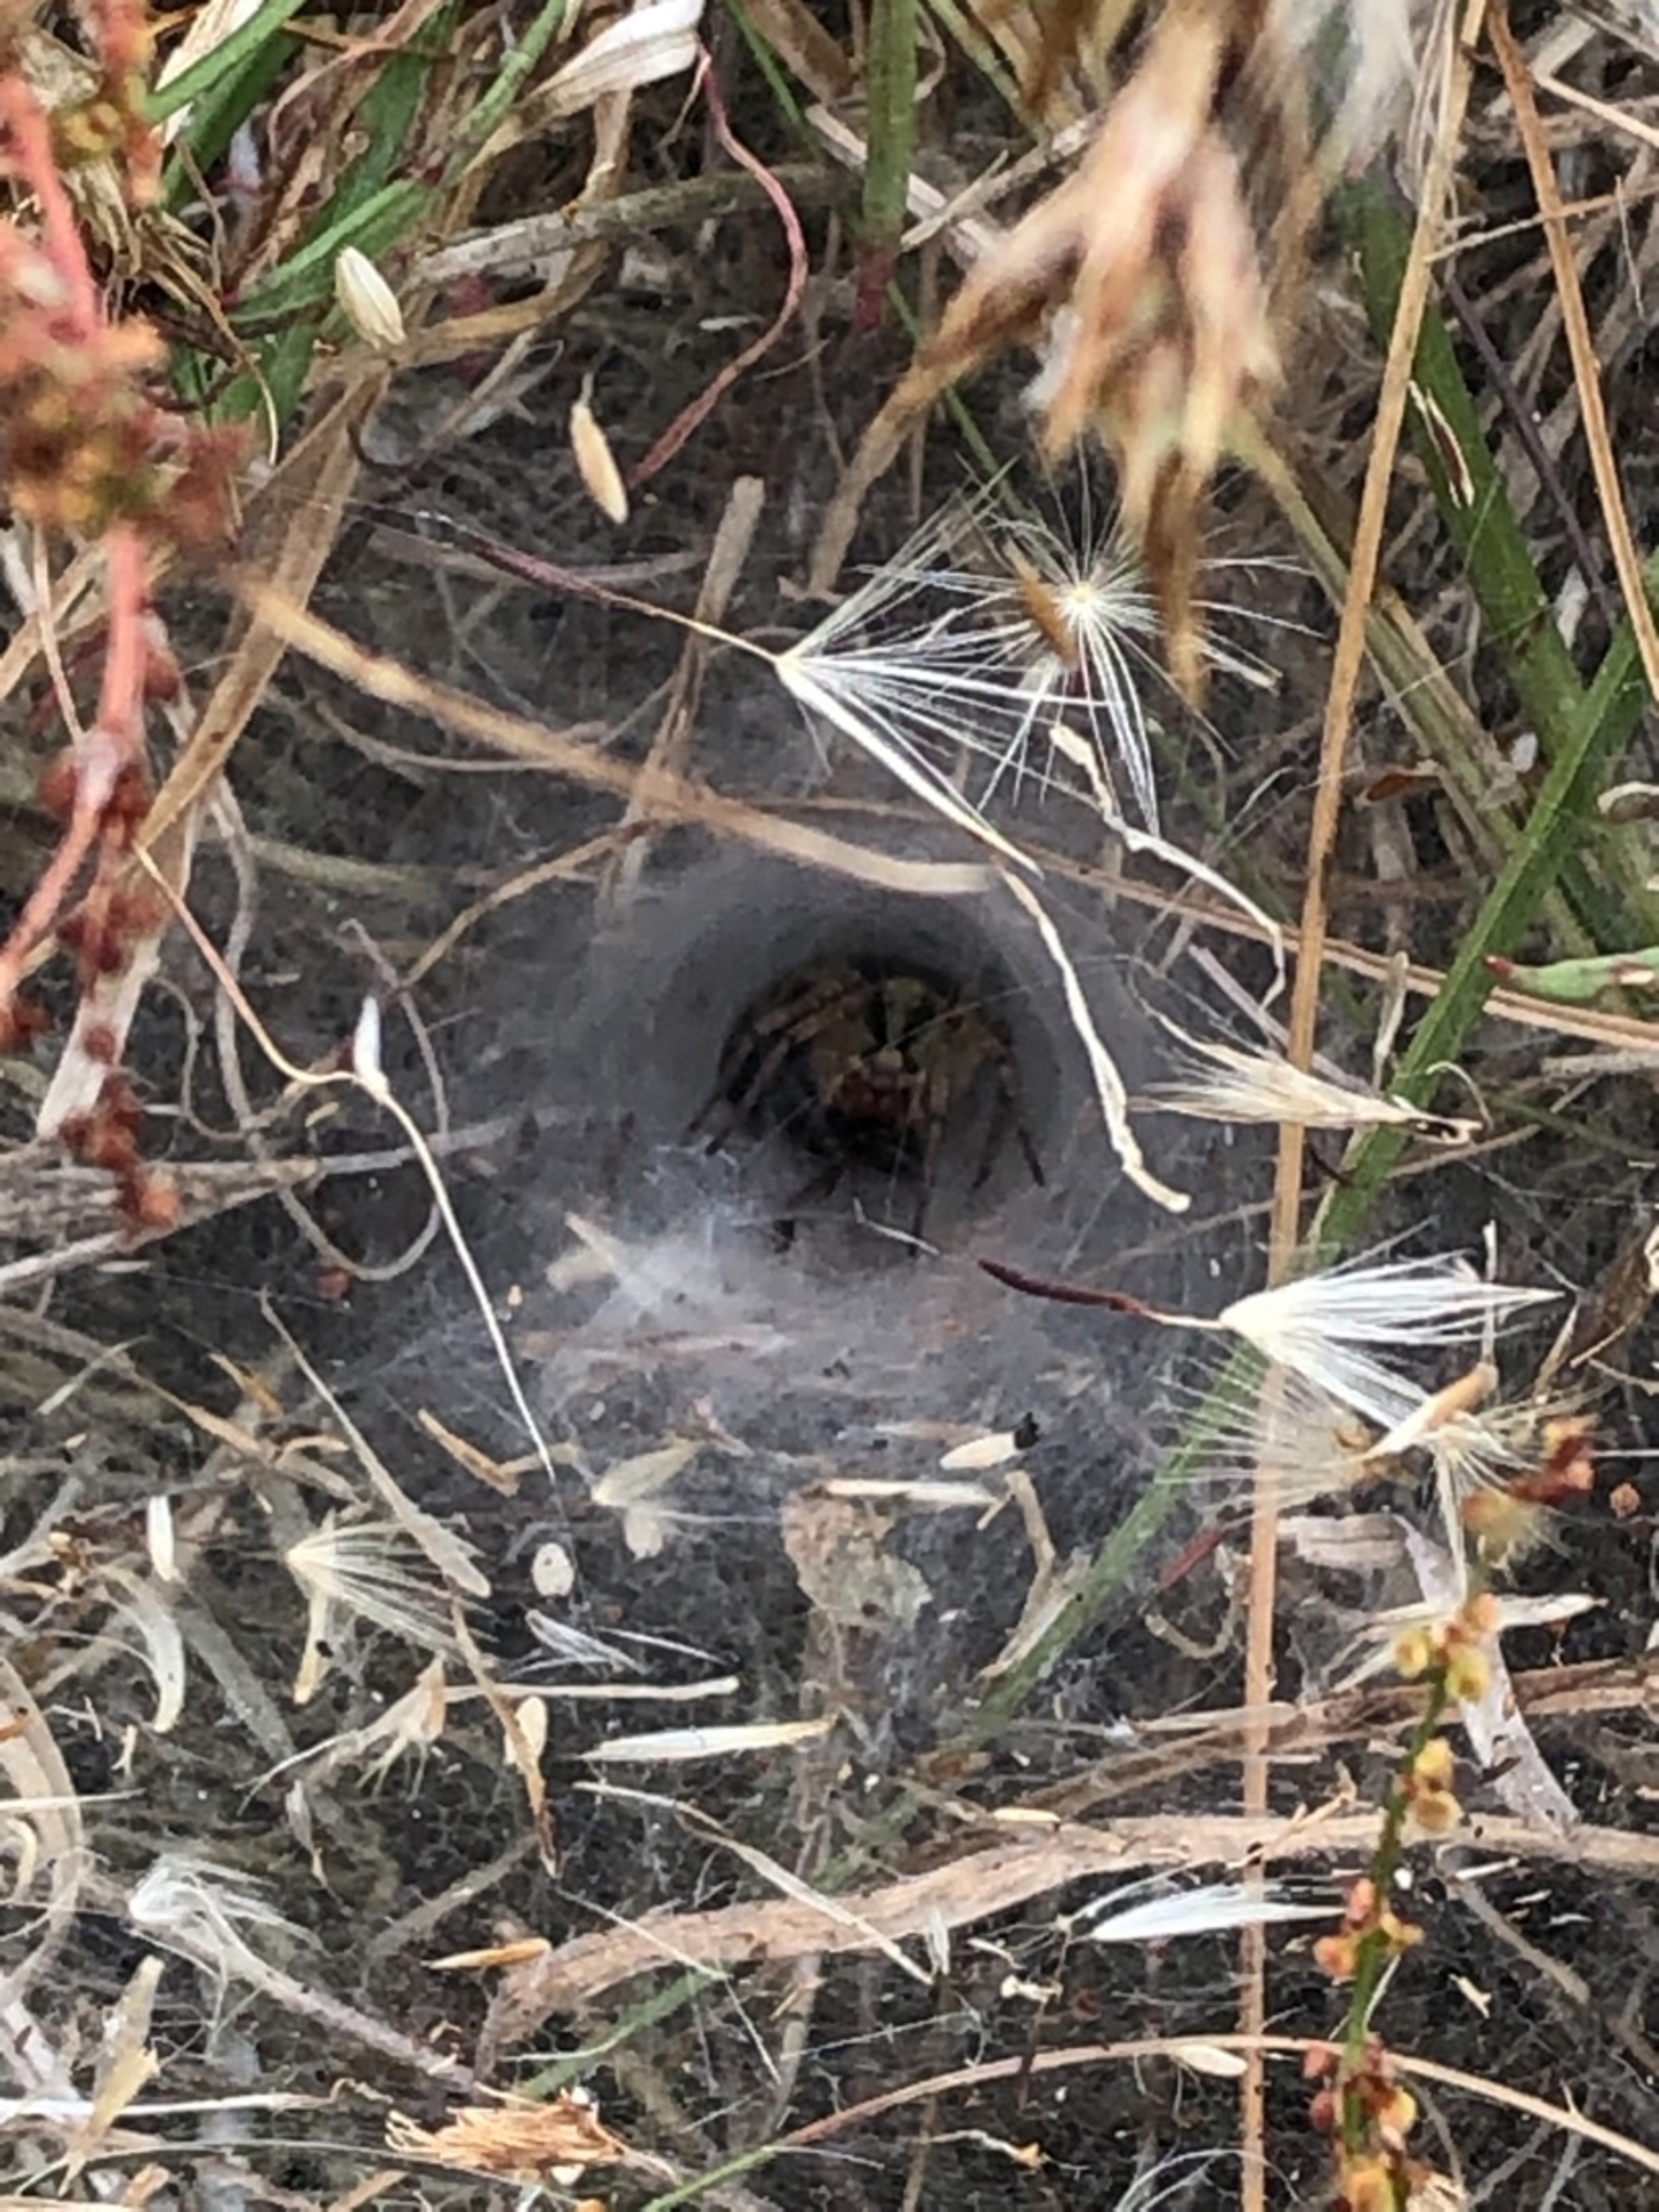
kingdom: Animalia
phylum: Arthropoda
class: Arachnida
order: Araneae
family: Agelenidae
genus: Agelena
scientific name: Agelena labyrinthica
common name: Labyrintedderkop
